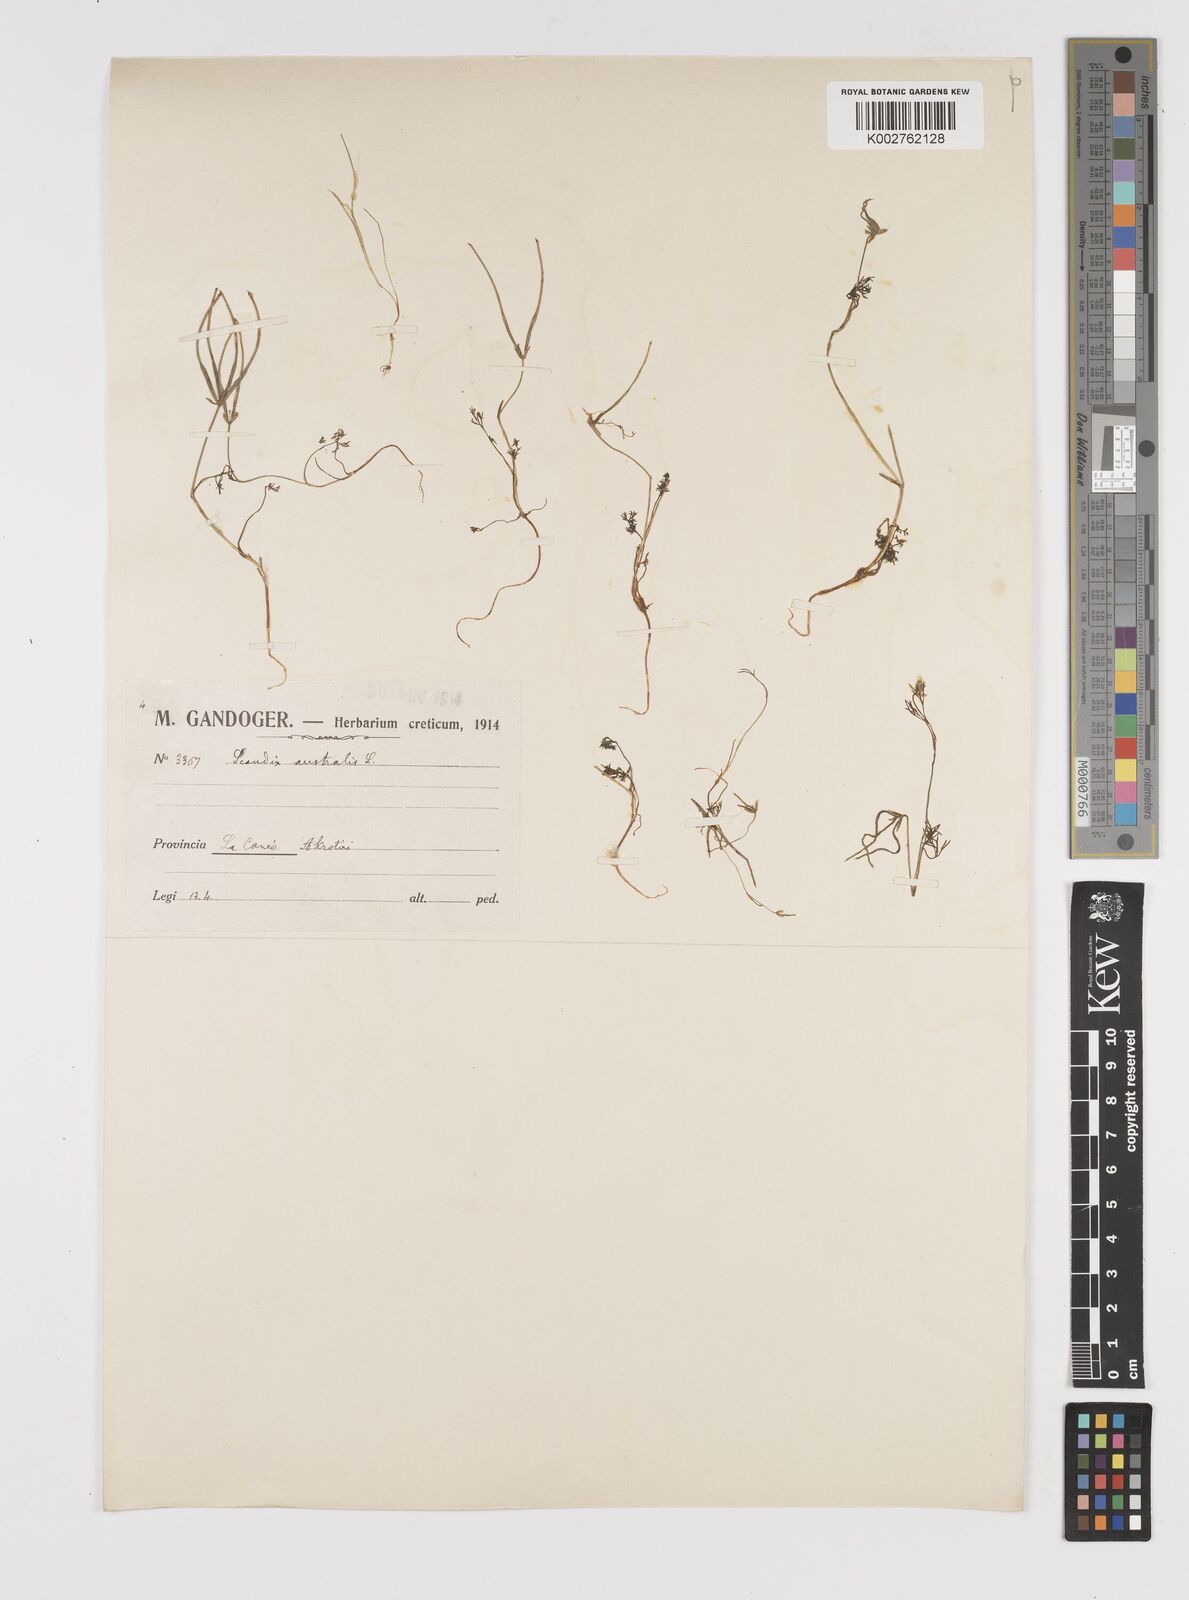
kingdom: Plantae
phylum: Tracheophyta
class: Magnoliopsida
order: Apiales
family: Apiaceae
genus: Scandix
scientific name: Scandix australis
